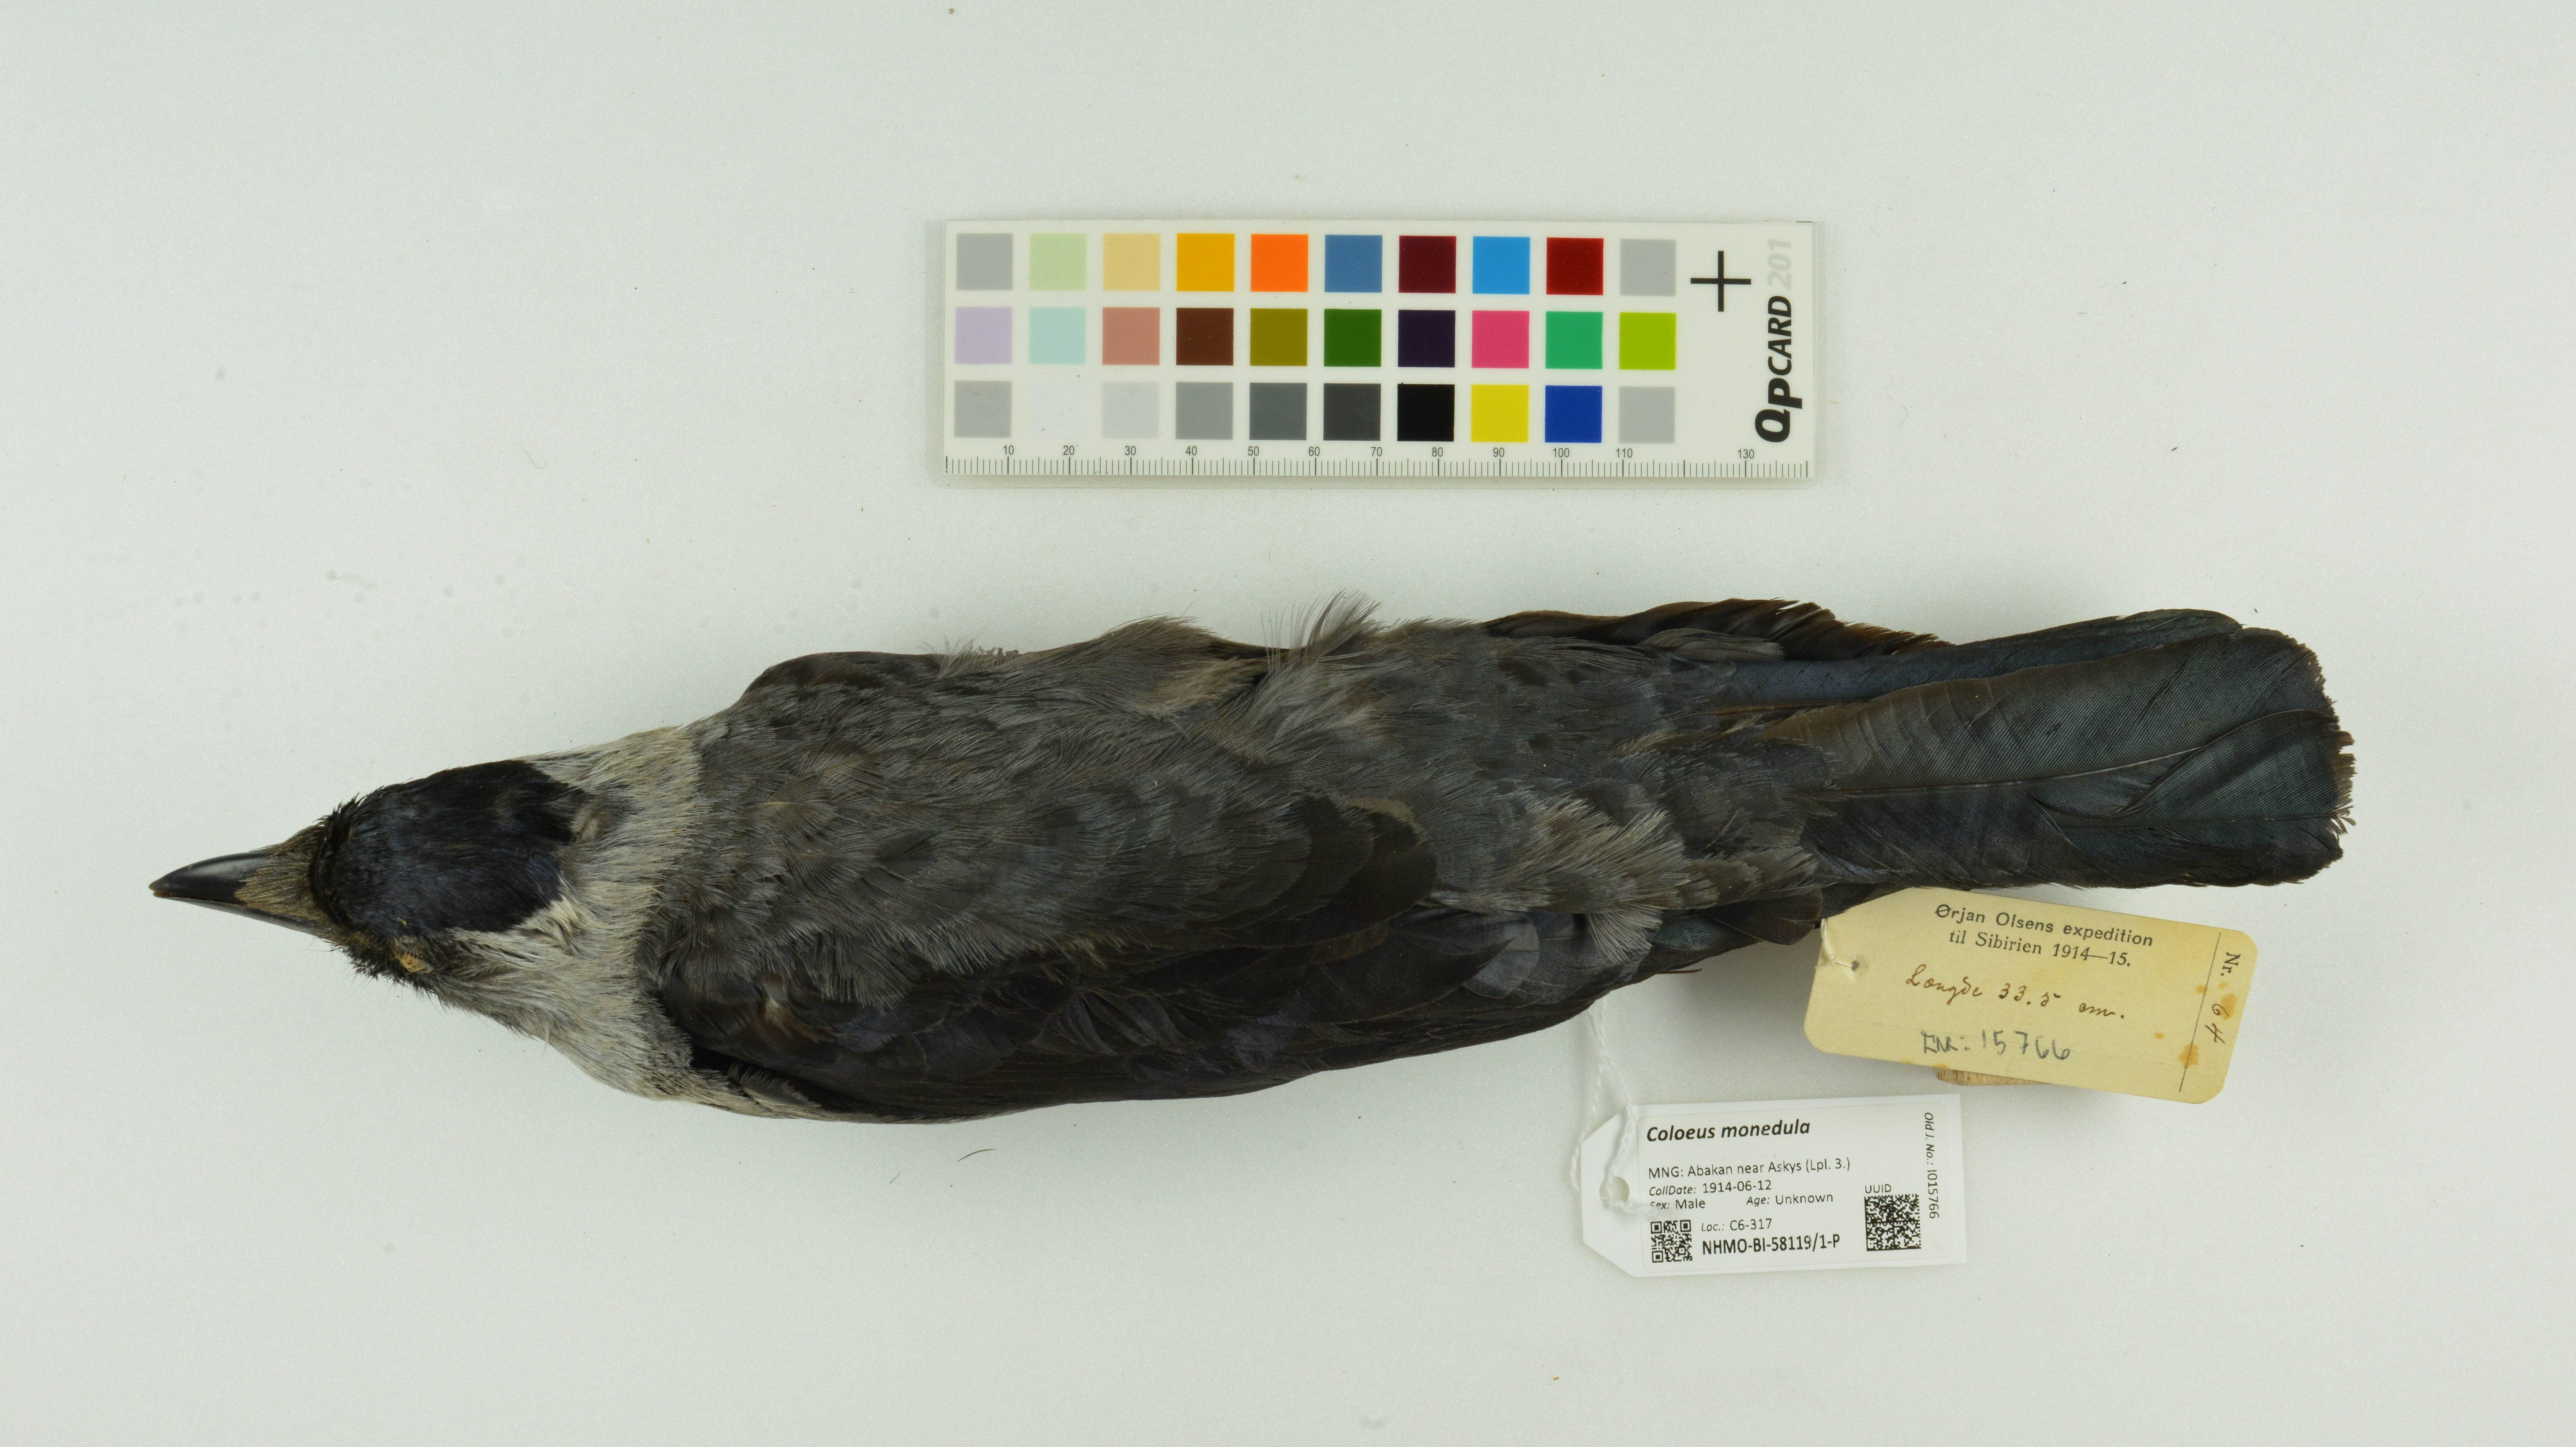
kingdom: Animalia
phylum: Chordata
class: Aves
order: Passeriformes
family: Corvidae
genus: Coloeus
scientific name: Coloeus monedula
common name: Western jackdaw
